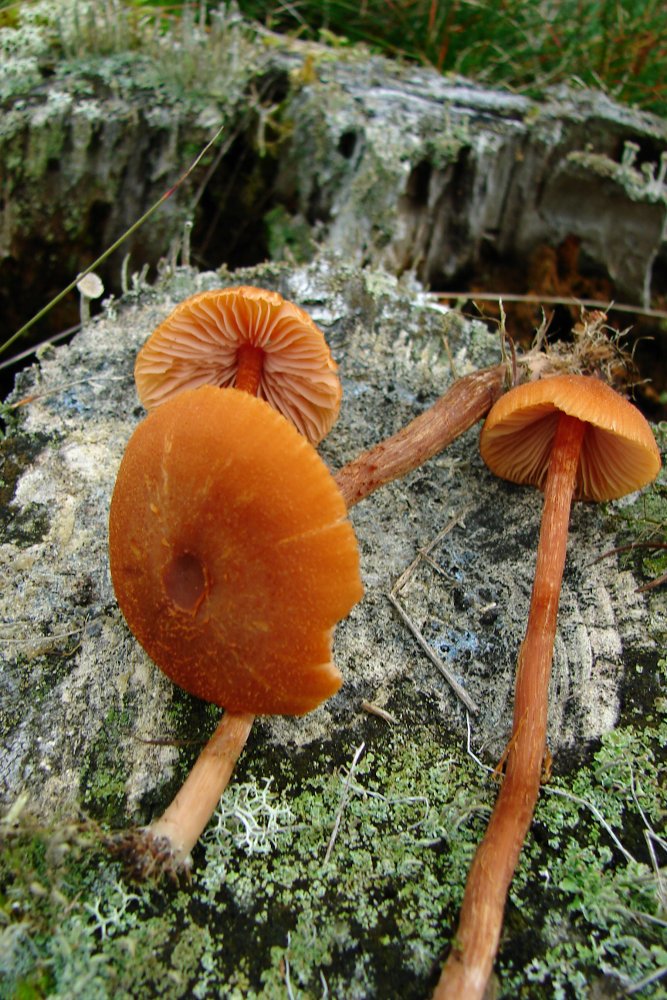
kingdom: Fungi
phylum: Basidiomycota
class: Agaricomycetes
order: Agaricales
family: Hydnangiaceae
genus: Laccaria
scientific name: Laccaria proxima
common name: stor ametysthat
